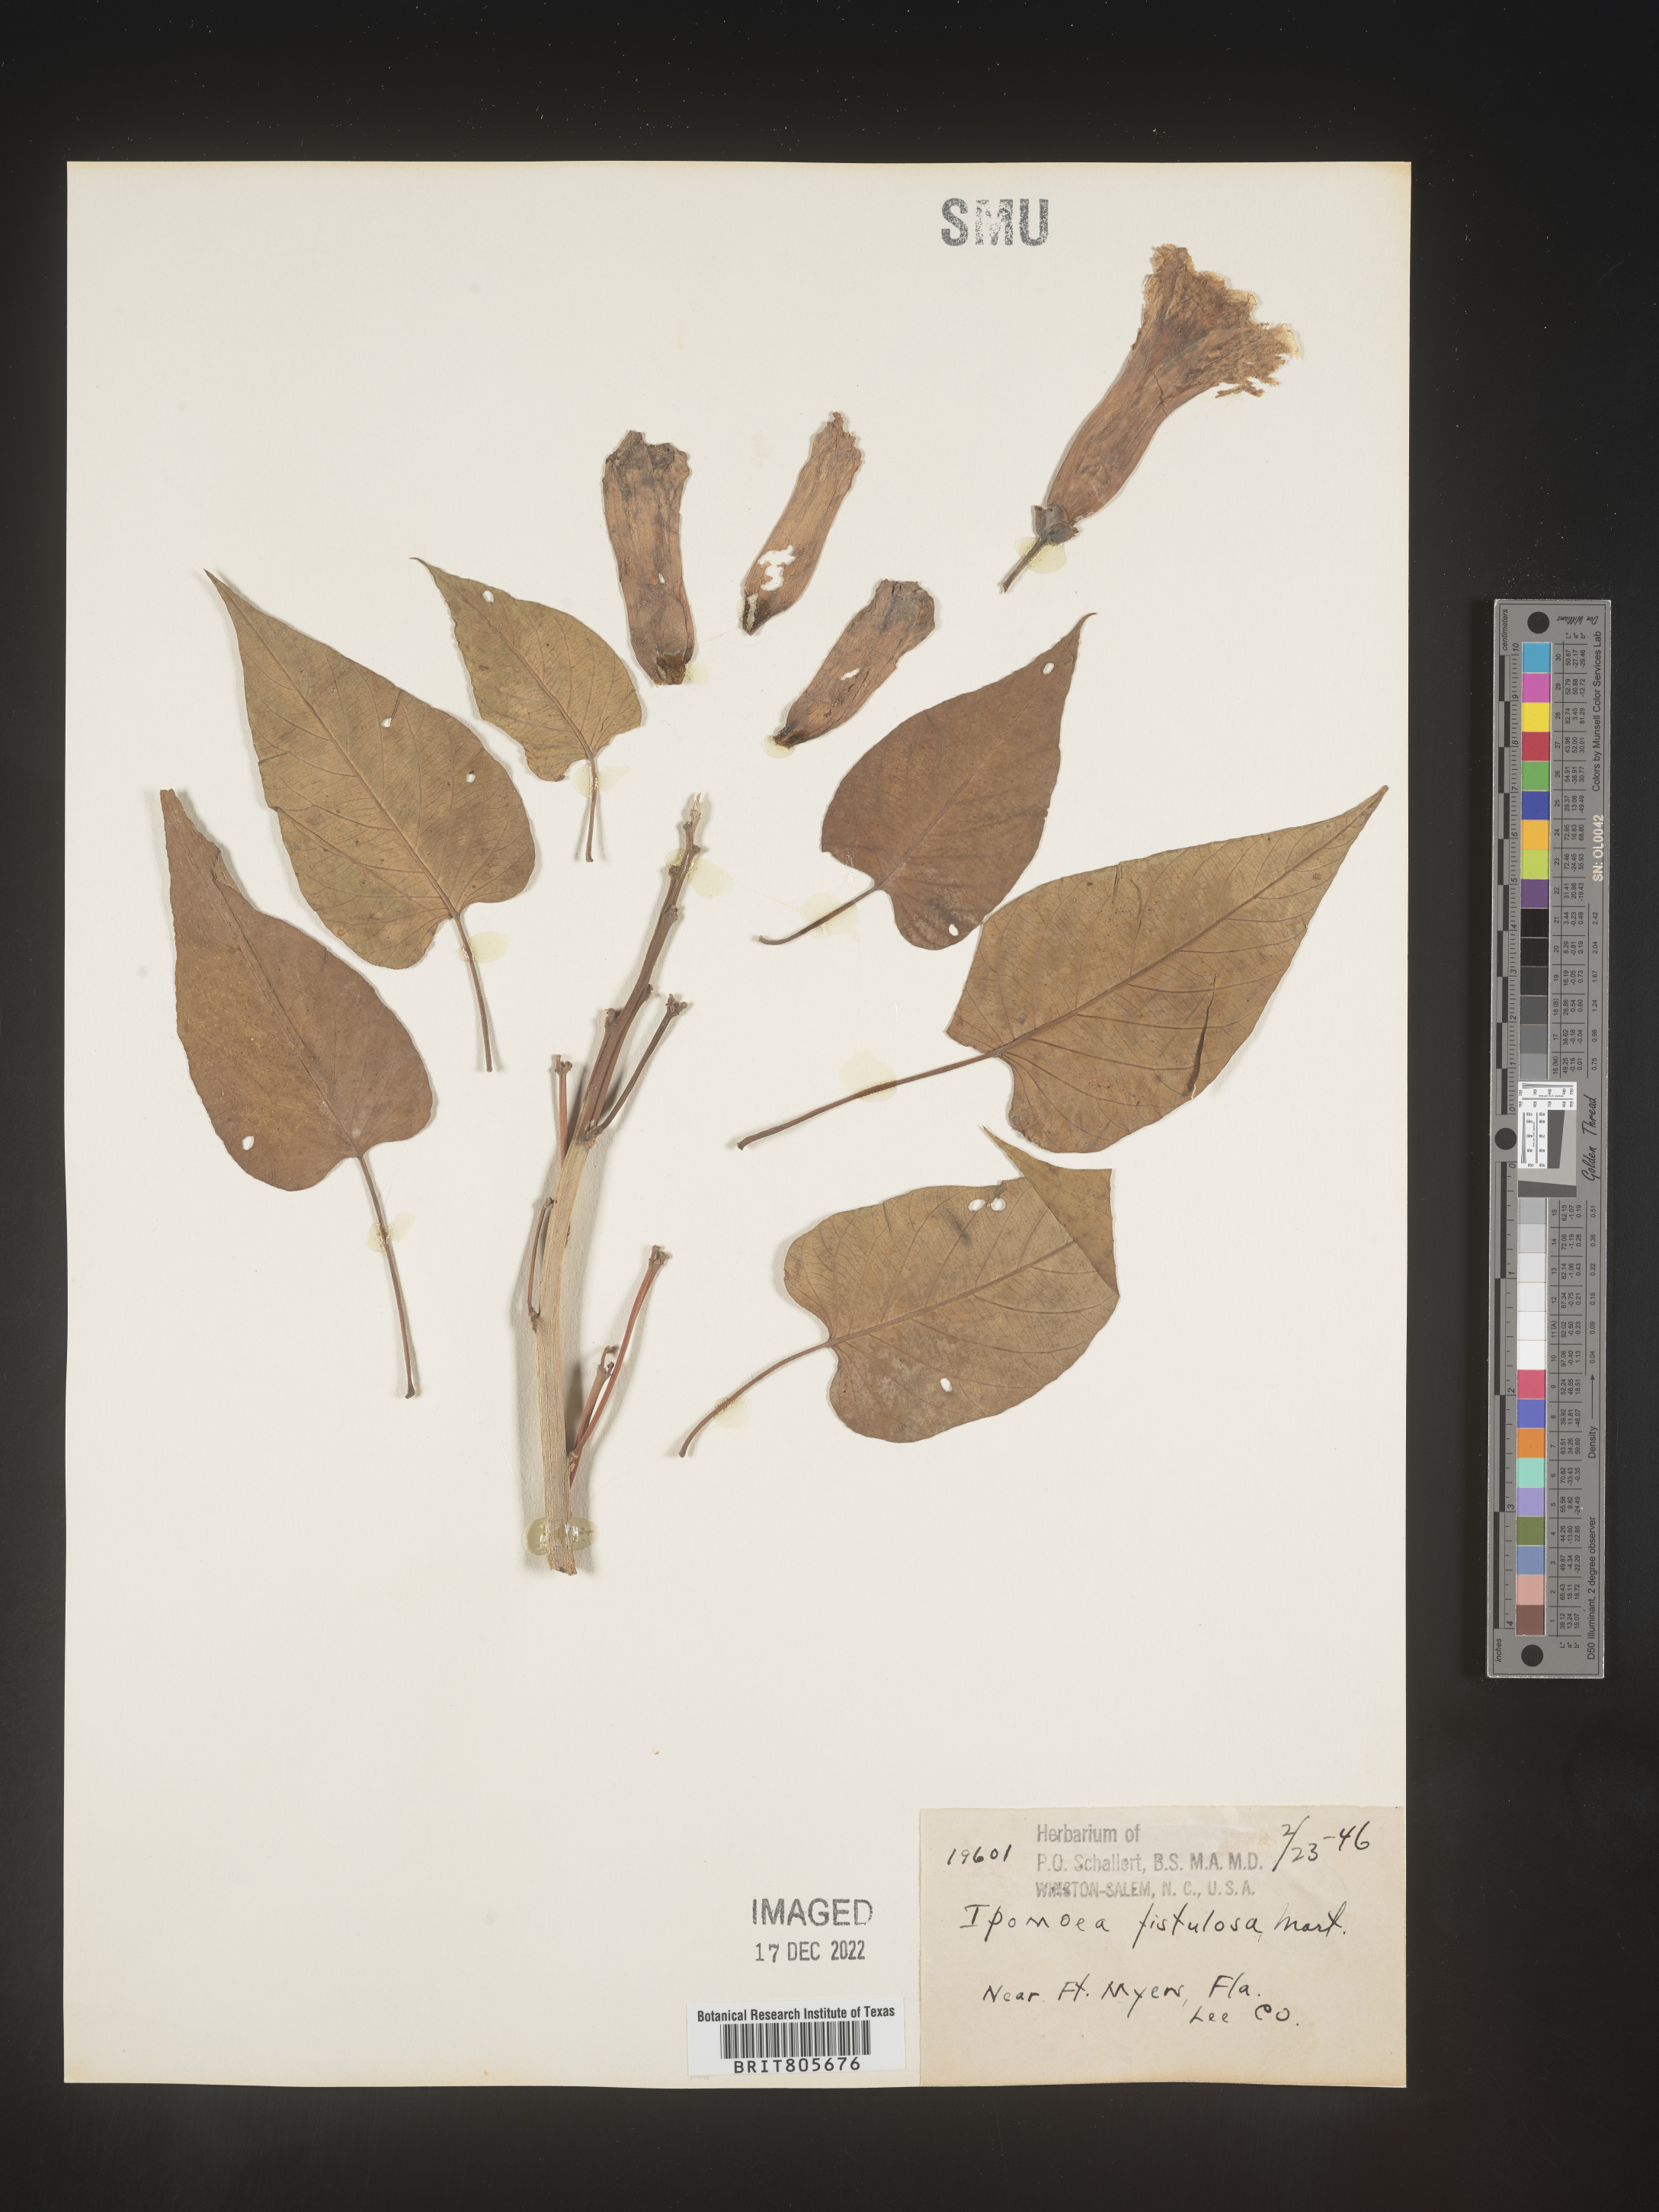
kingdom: Plantae
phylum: Tracheophyta
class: Magnoliopsida
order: Solanales
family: Convolvulaceae
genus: Ipomoea
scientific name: Ipomoea carnea
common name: Morning-glory
